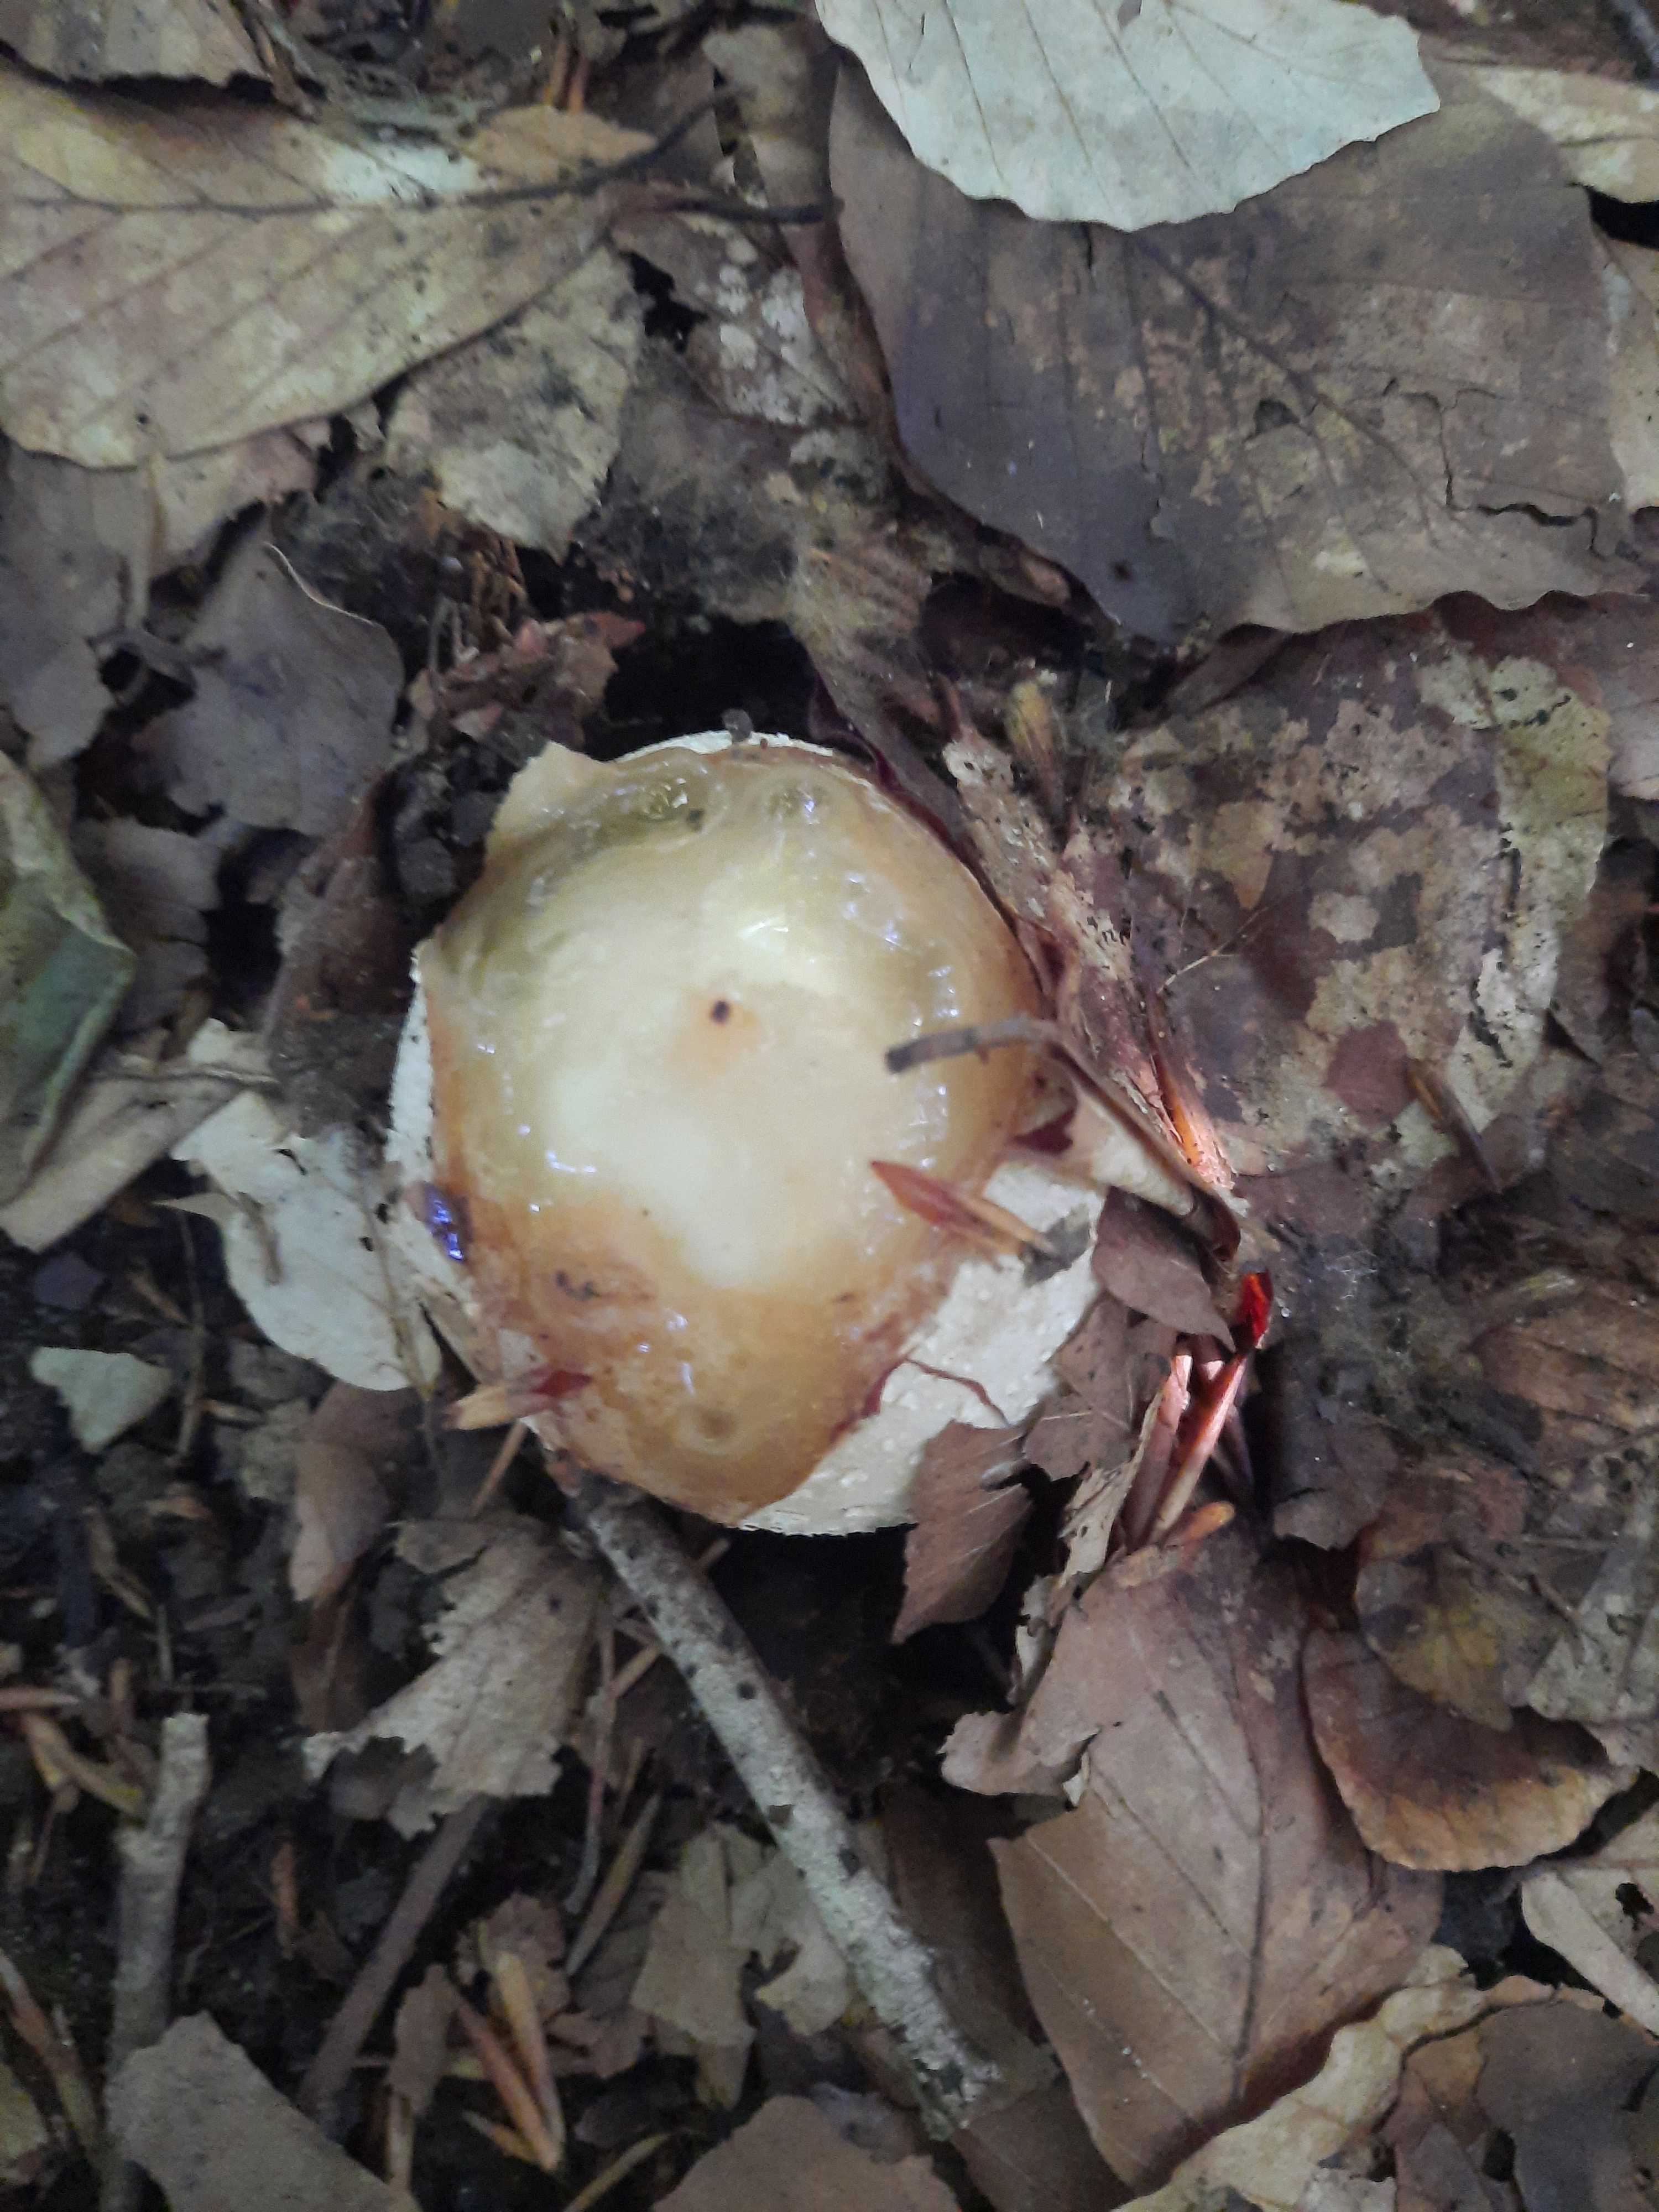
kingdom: Fungi
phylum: Basidiomycota
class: Agaricomycetes
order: Phallales
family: Phallaceae
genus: Phallus
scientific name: Phallus impudicus
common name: almindelig stinksvamp
